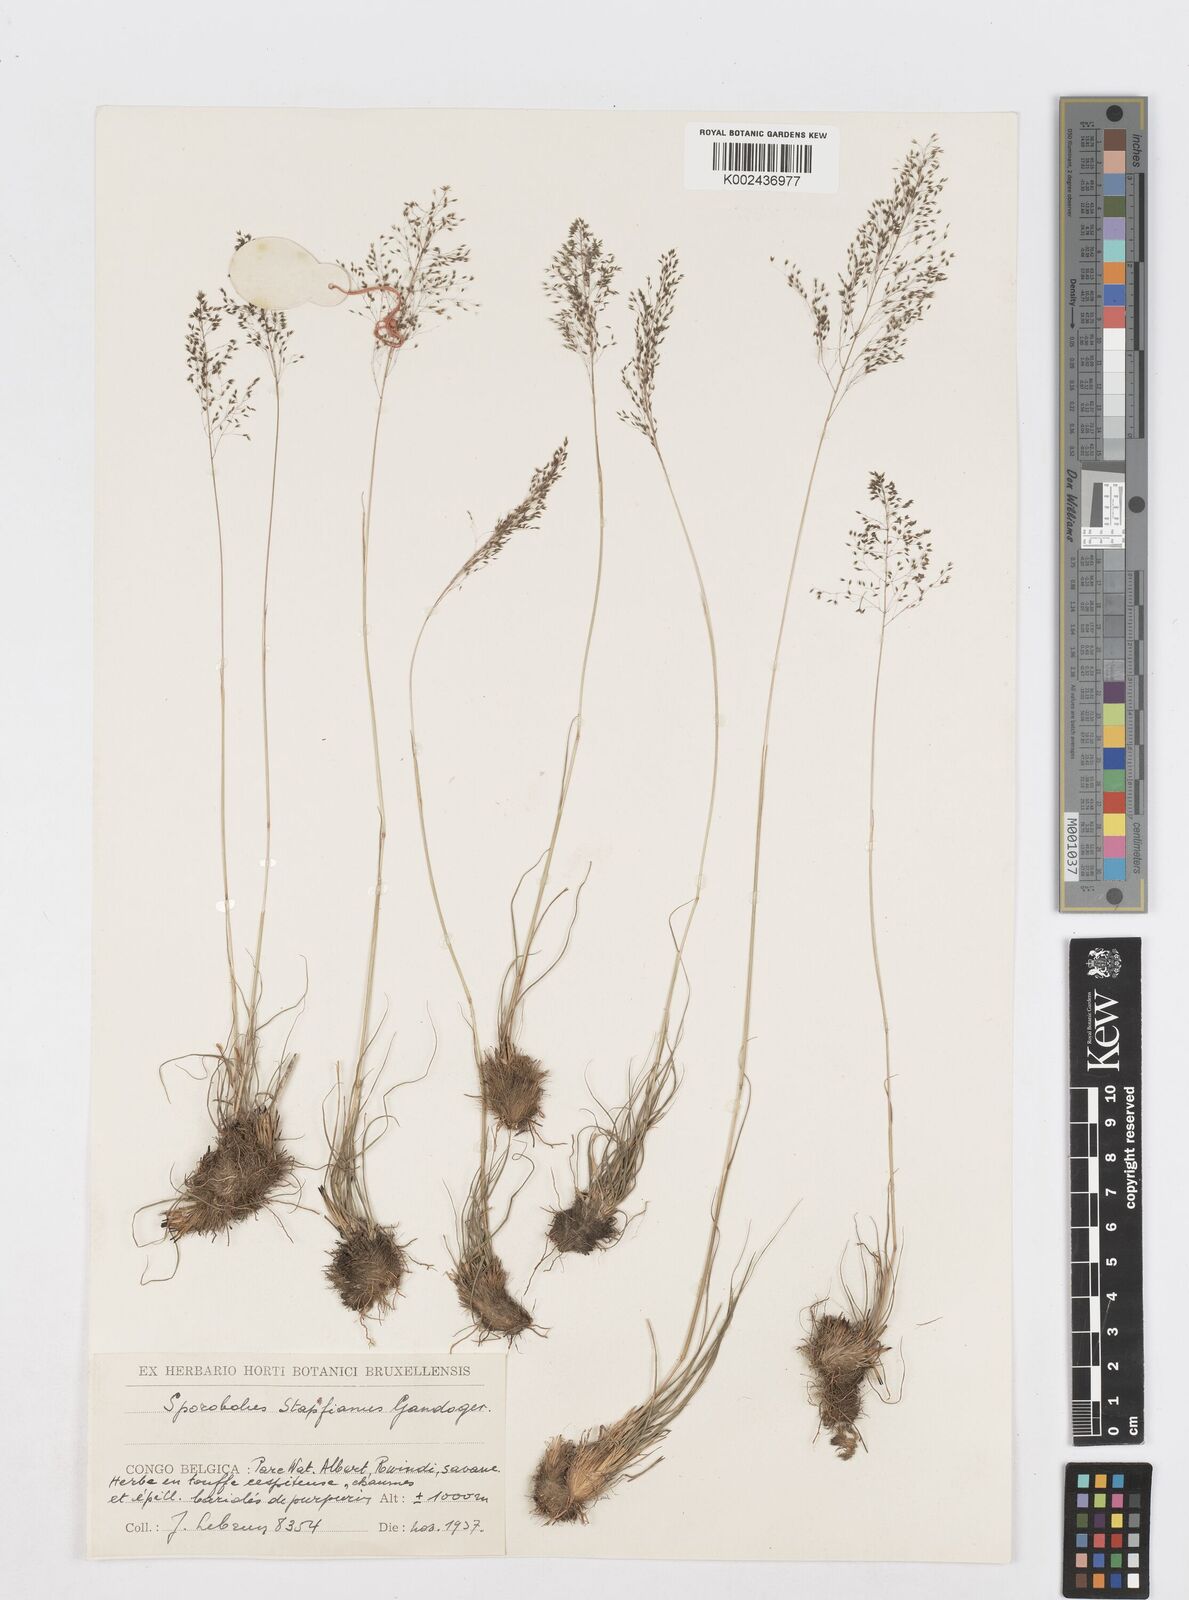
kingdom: Plantae
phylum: Tracheophyta
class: Liliopsida
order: Poales
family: Poaceae
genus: Sporobolus
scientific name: Sporobolus stapfianus
